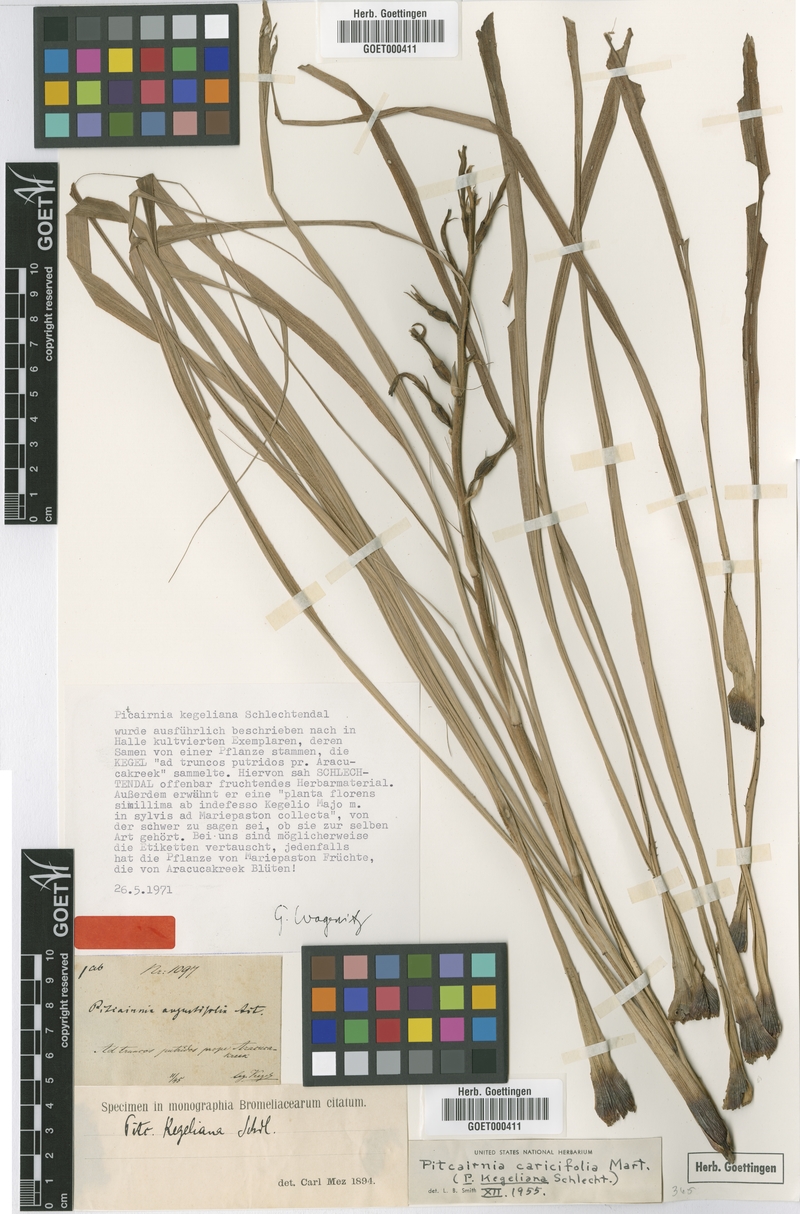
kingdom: Plantae
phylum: Tracheophyta
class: Liliopsida
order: Poales
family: Bromeliaceae
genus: Pitcairnia
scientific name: Pitcairnia caricifolia
